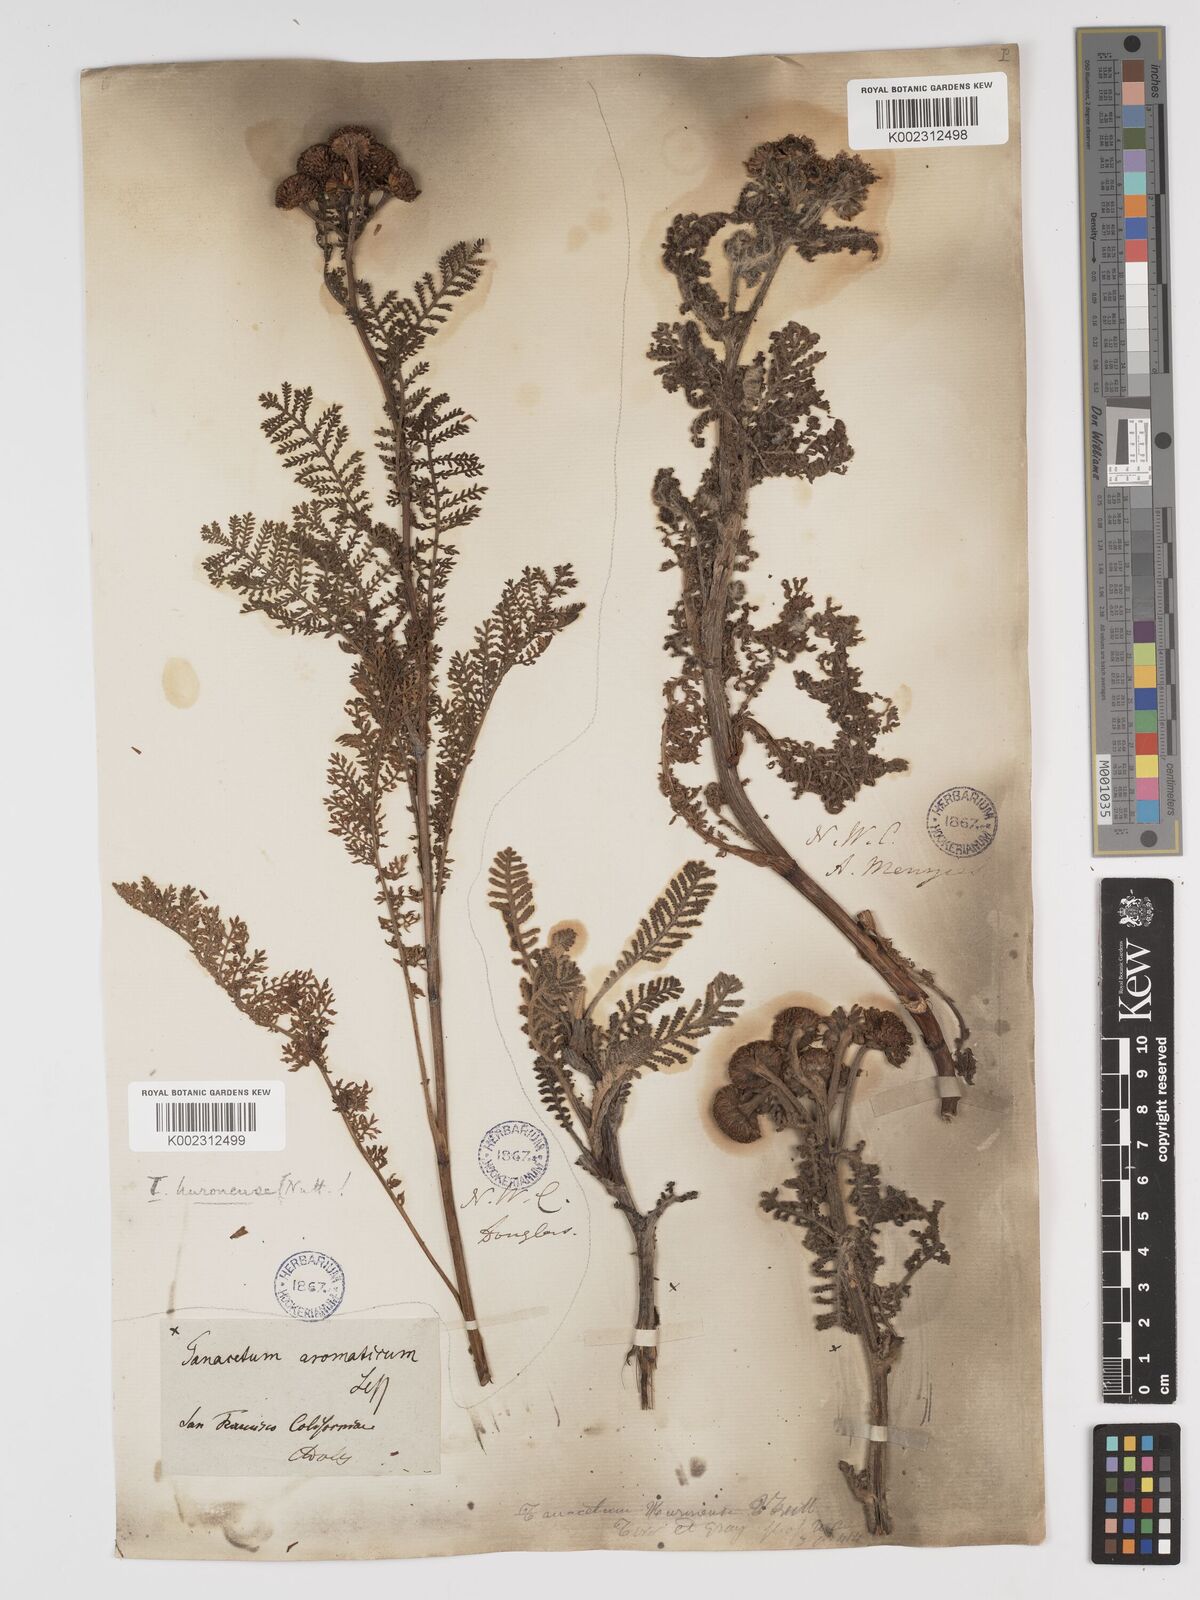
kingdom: Plantae
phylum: Tracheophyta
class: Magnoliopsida
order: Asterales
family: Asteraceae
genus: Tanacetum
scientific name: Tanacetum bipinnatum
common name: Dwarf tansy
